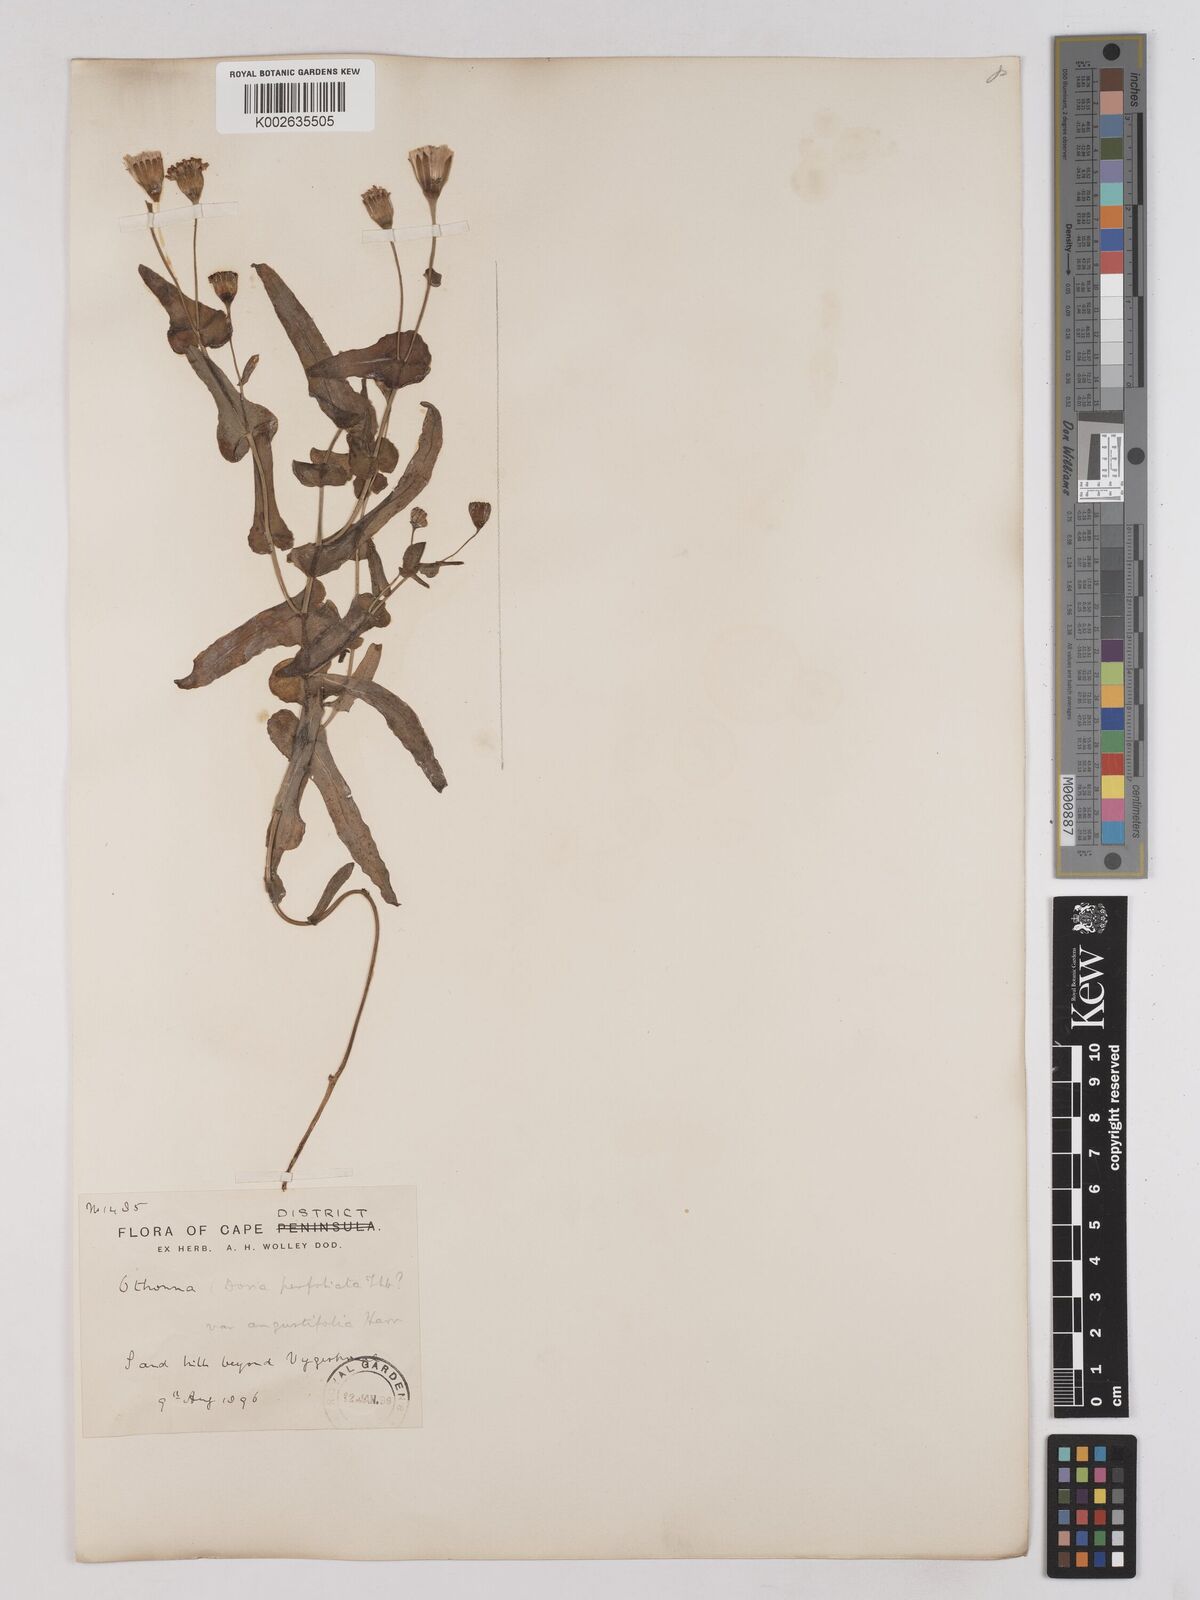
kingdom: Plantae
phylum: Tracheophyta
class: Magnoliopsida
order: Asterales
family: Asteraceae
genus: Othonna
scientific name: Othonna perfoliata
